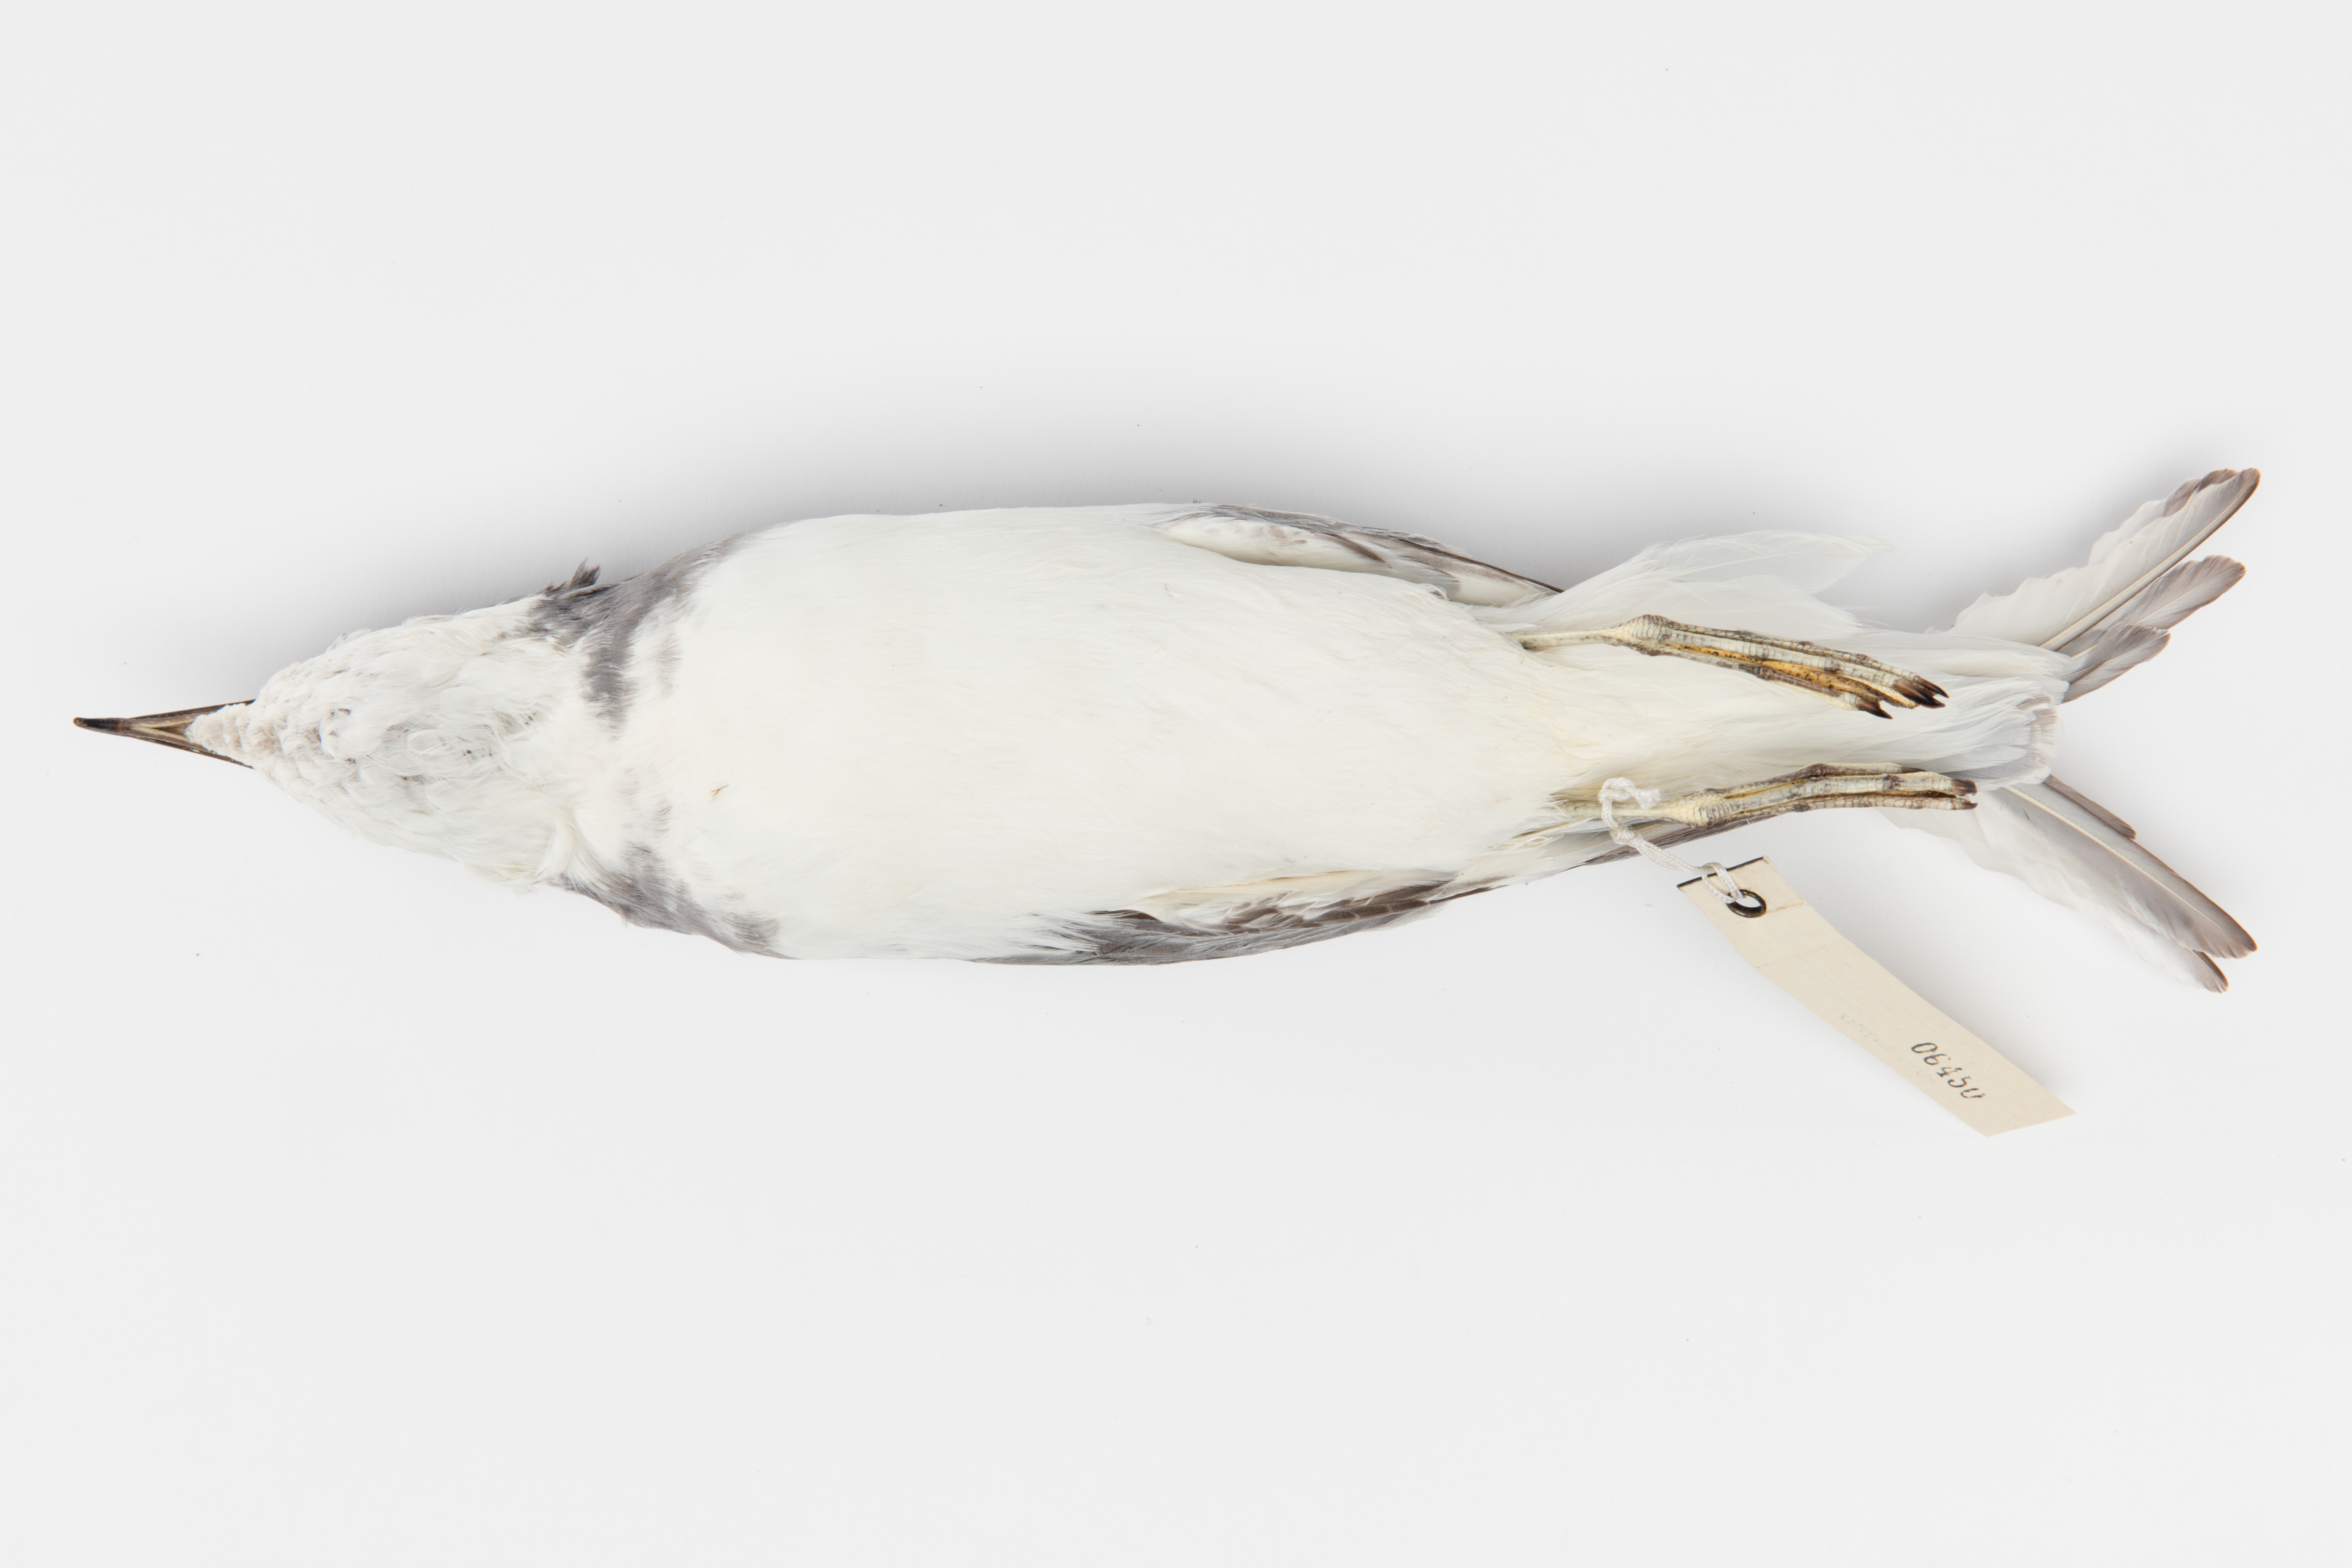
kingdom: Animalia
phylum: Chordata
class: Aves
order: Procellariiformes
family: Procellariidae
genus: Halobaena
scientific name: Halobaena caerulea
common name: Blue petrel
